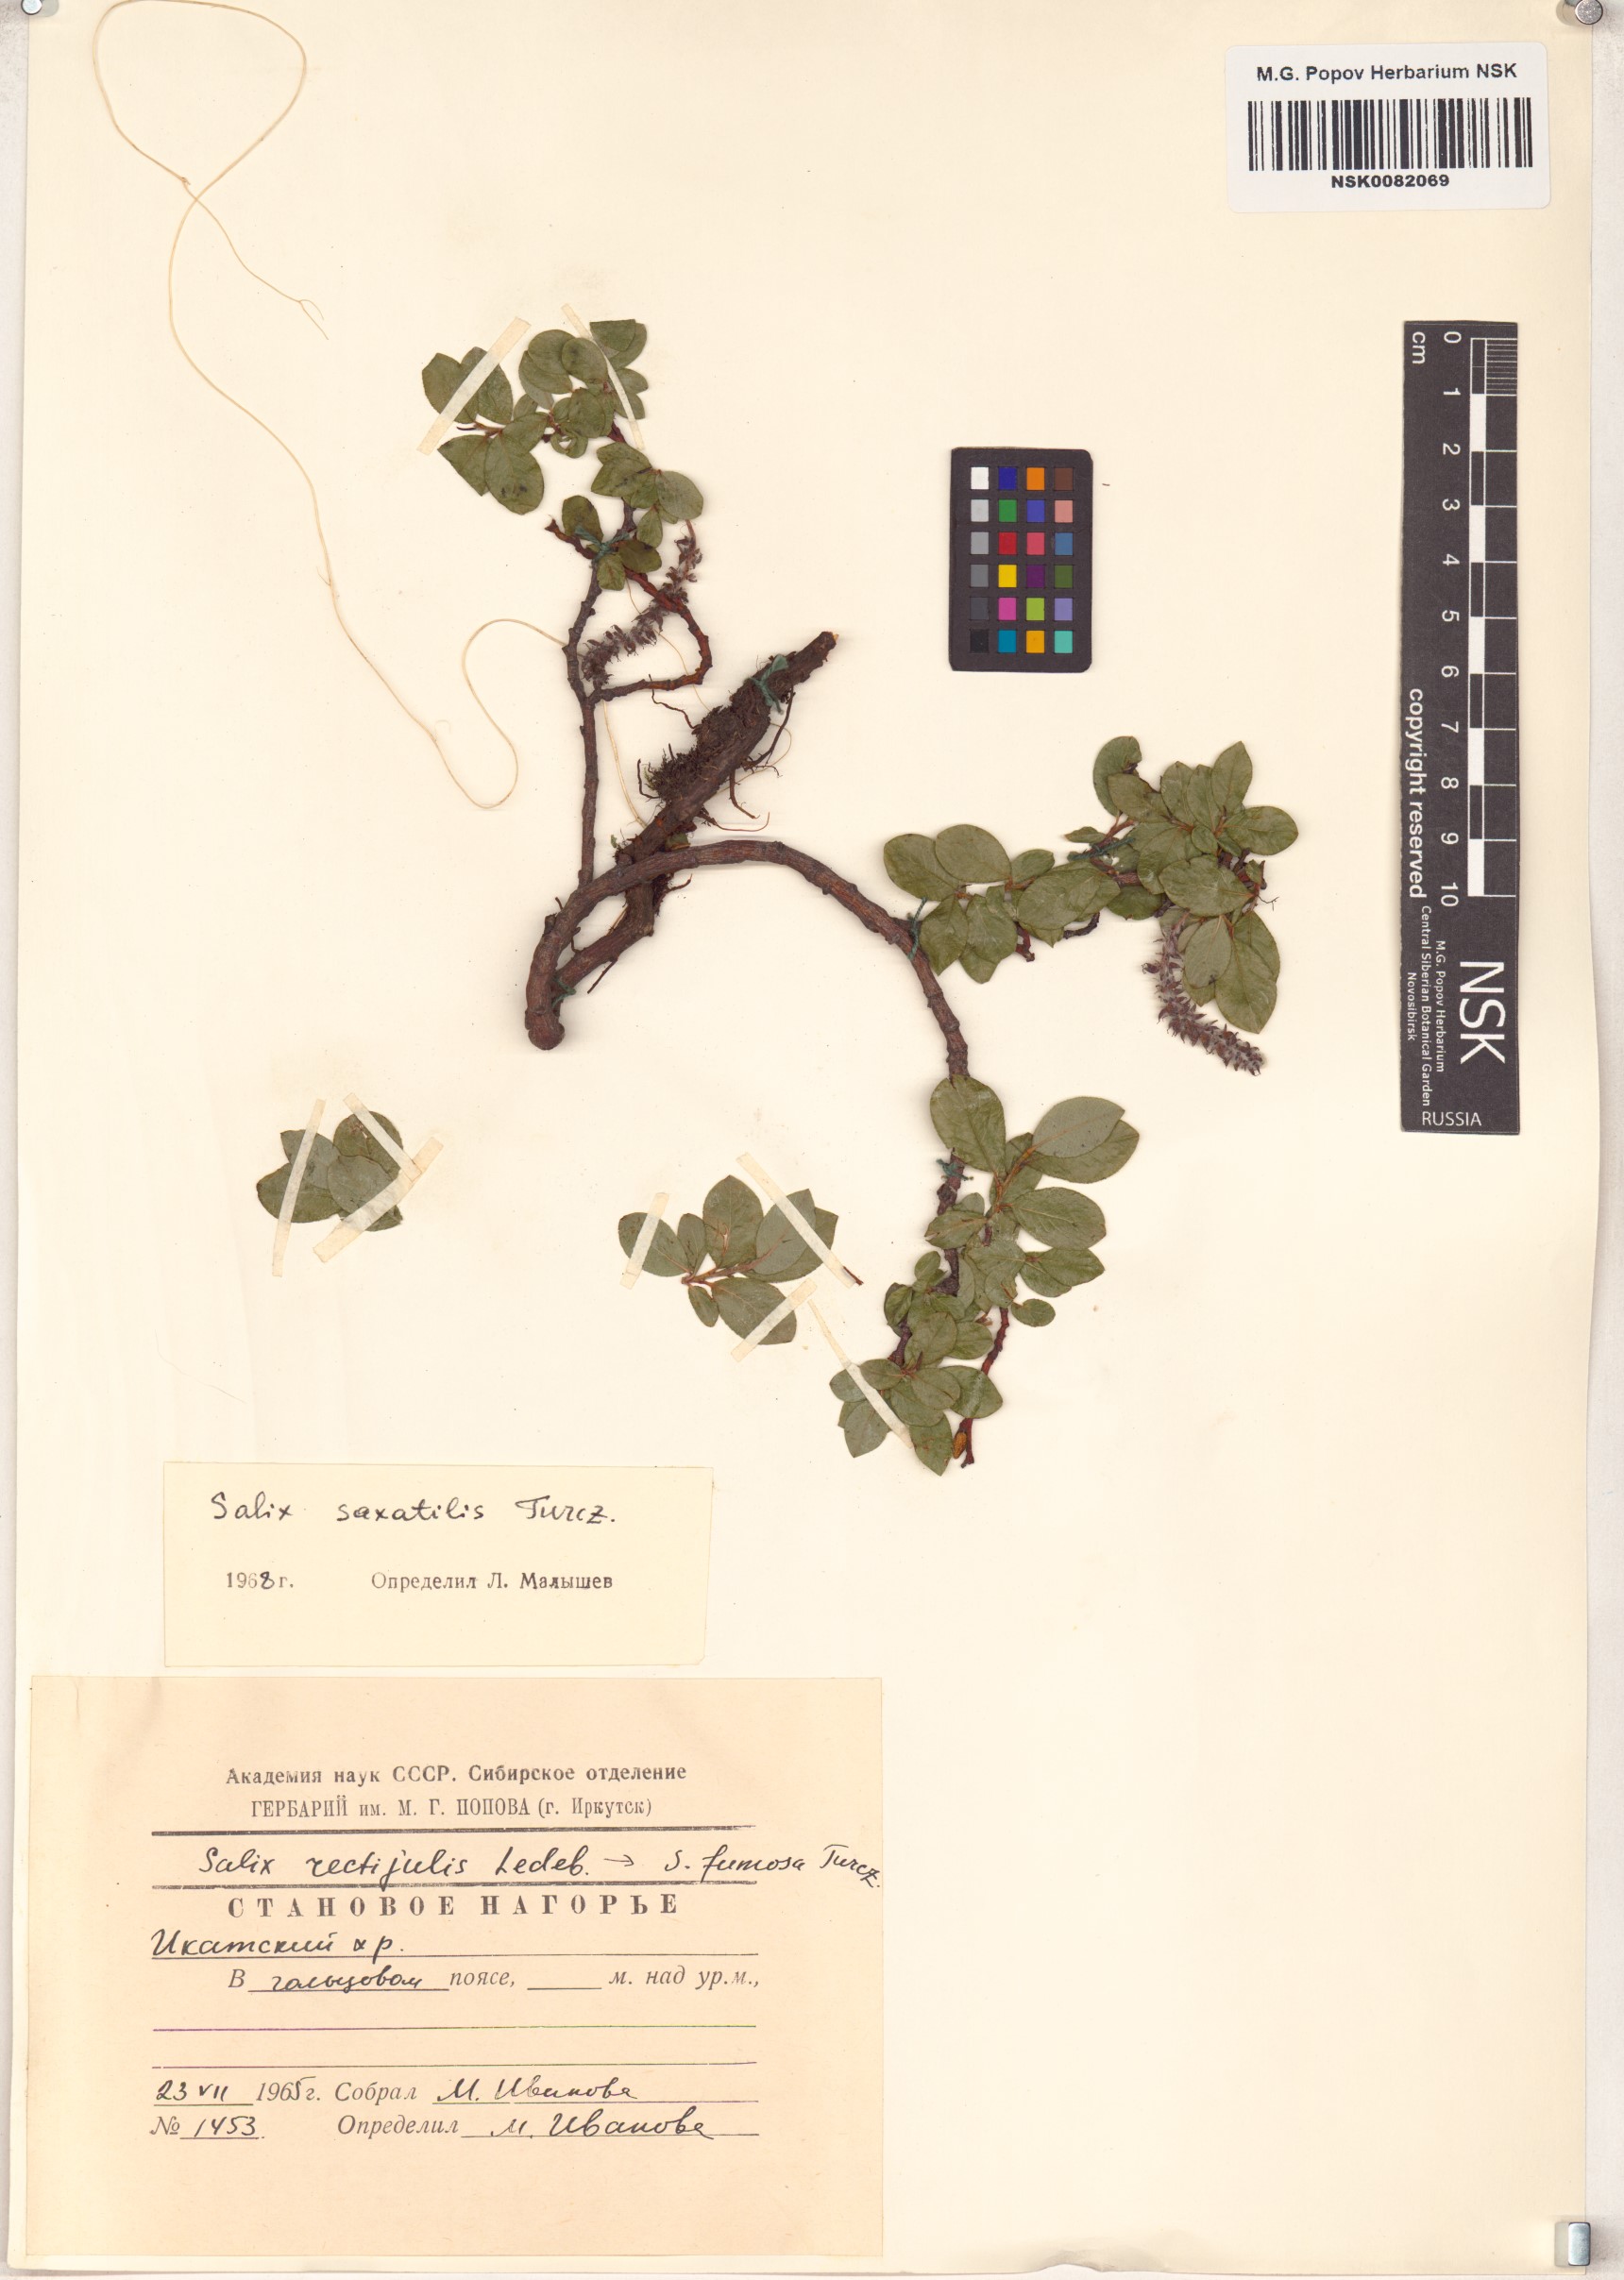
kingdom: Plantae
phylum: Tracheophyta
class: Magnoliopsida
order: Malpighiales
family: Salicaceae
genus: Salix
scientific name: Salix saxatilis
